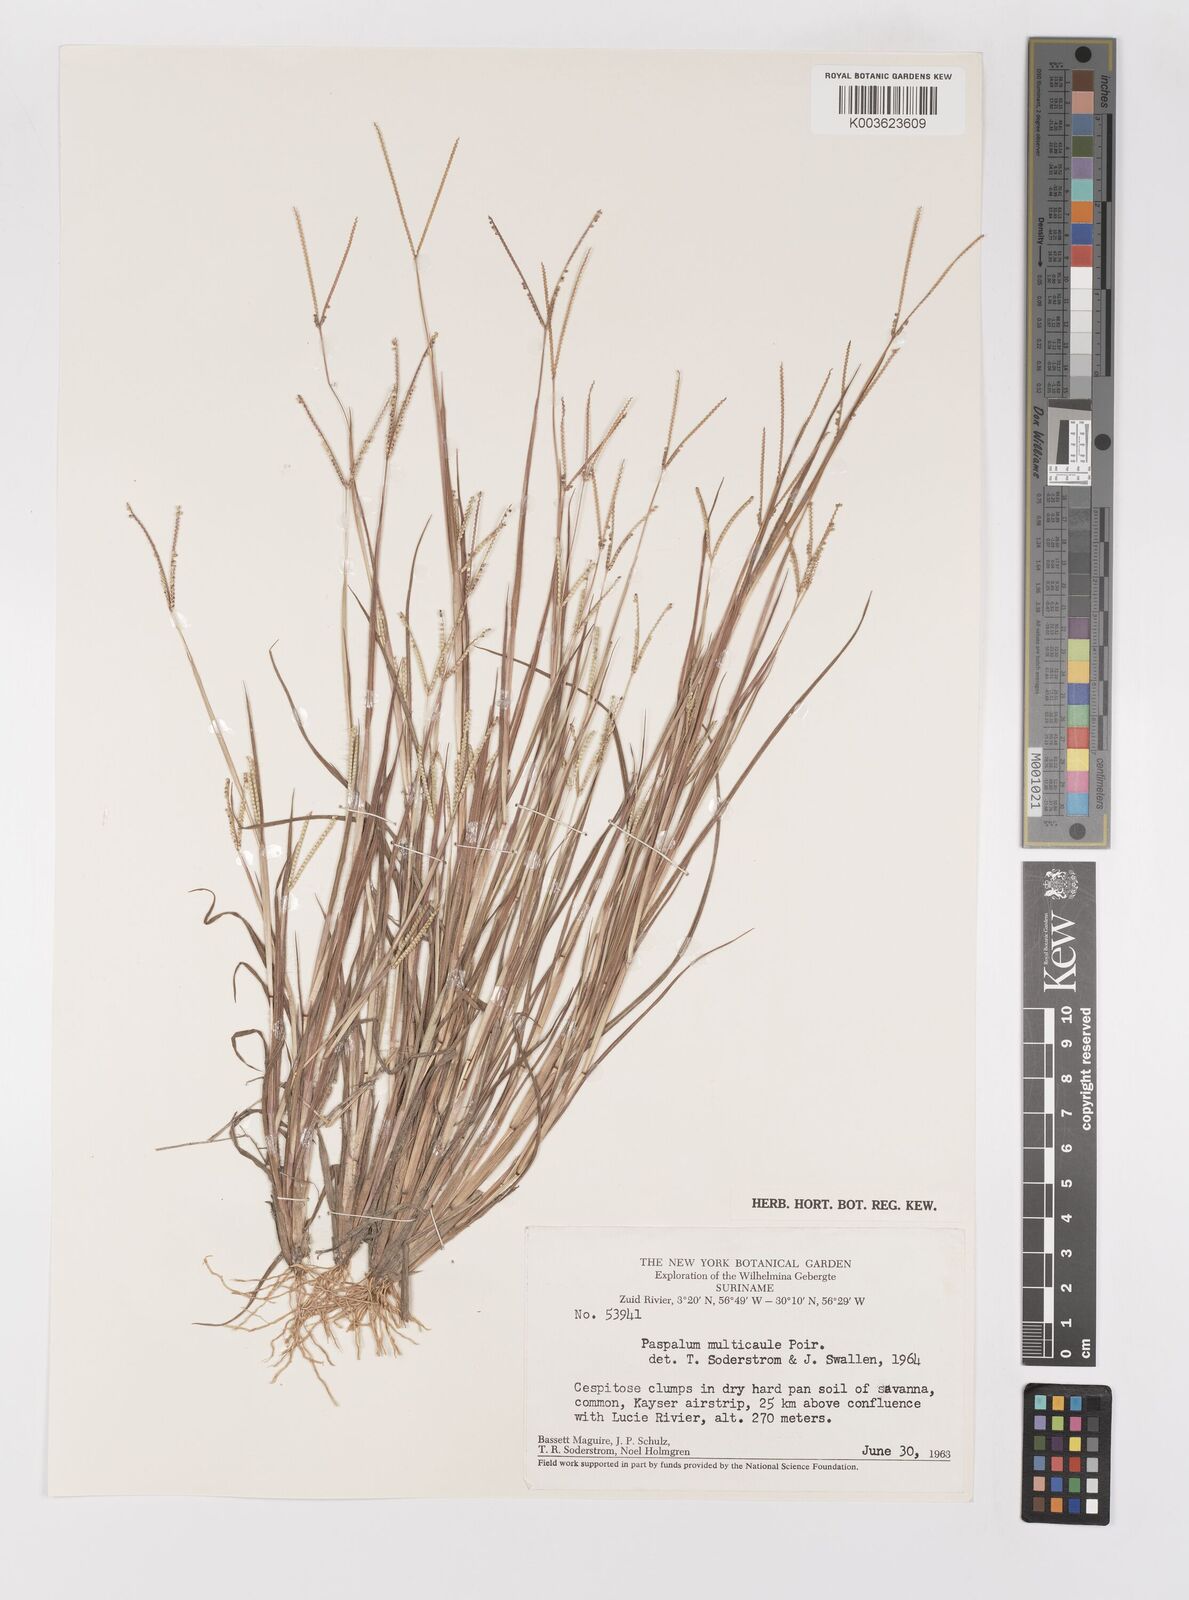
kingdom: Plantae
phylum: Tracheophyta
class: Liliopsida
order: Poales
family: Poaceae
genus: Paspalum
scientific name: Paspalum multicaule
